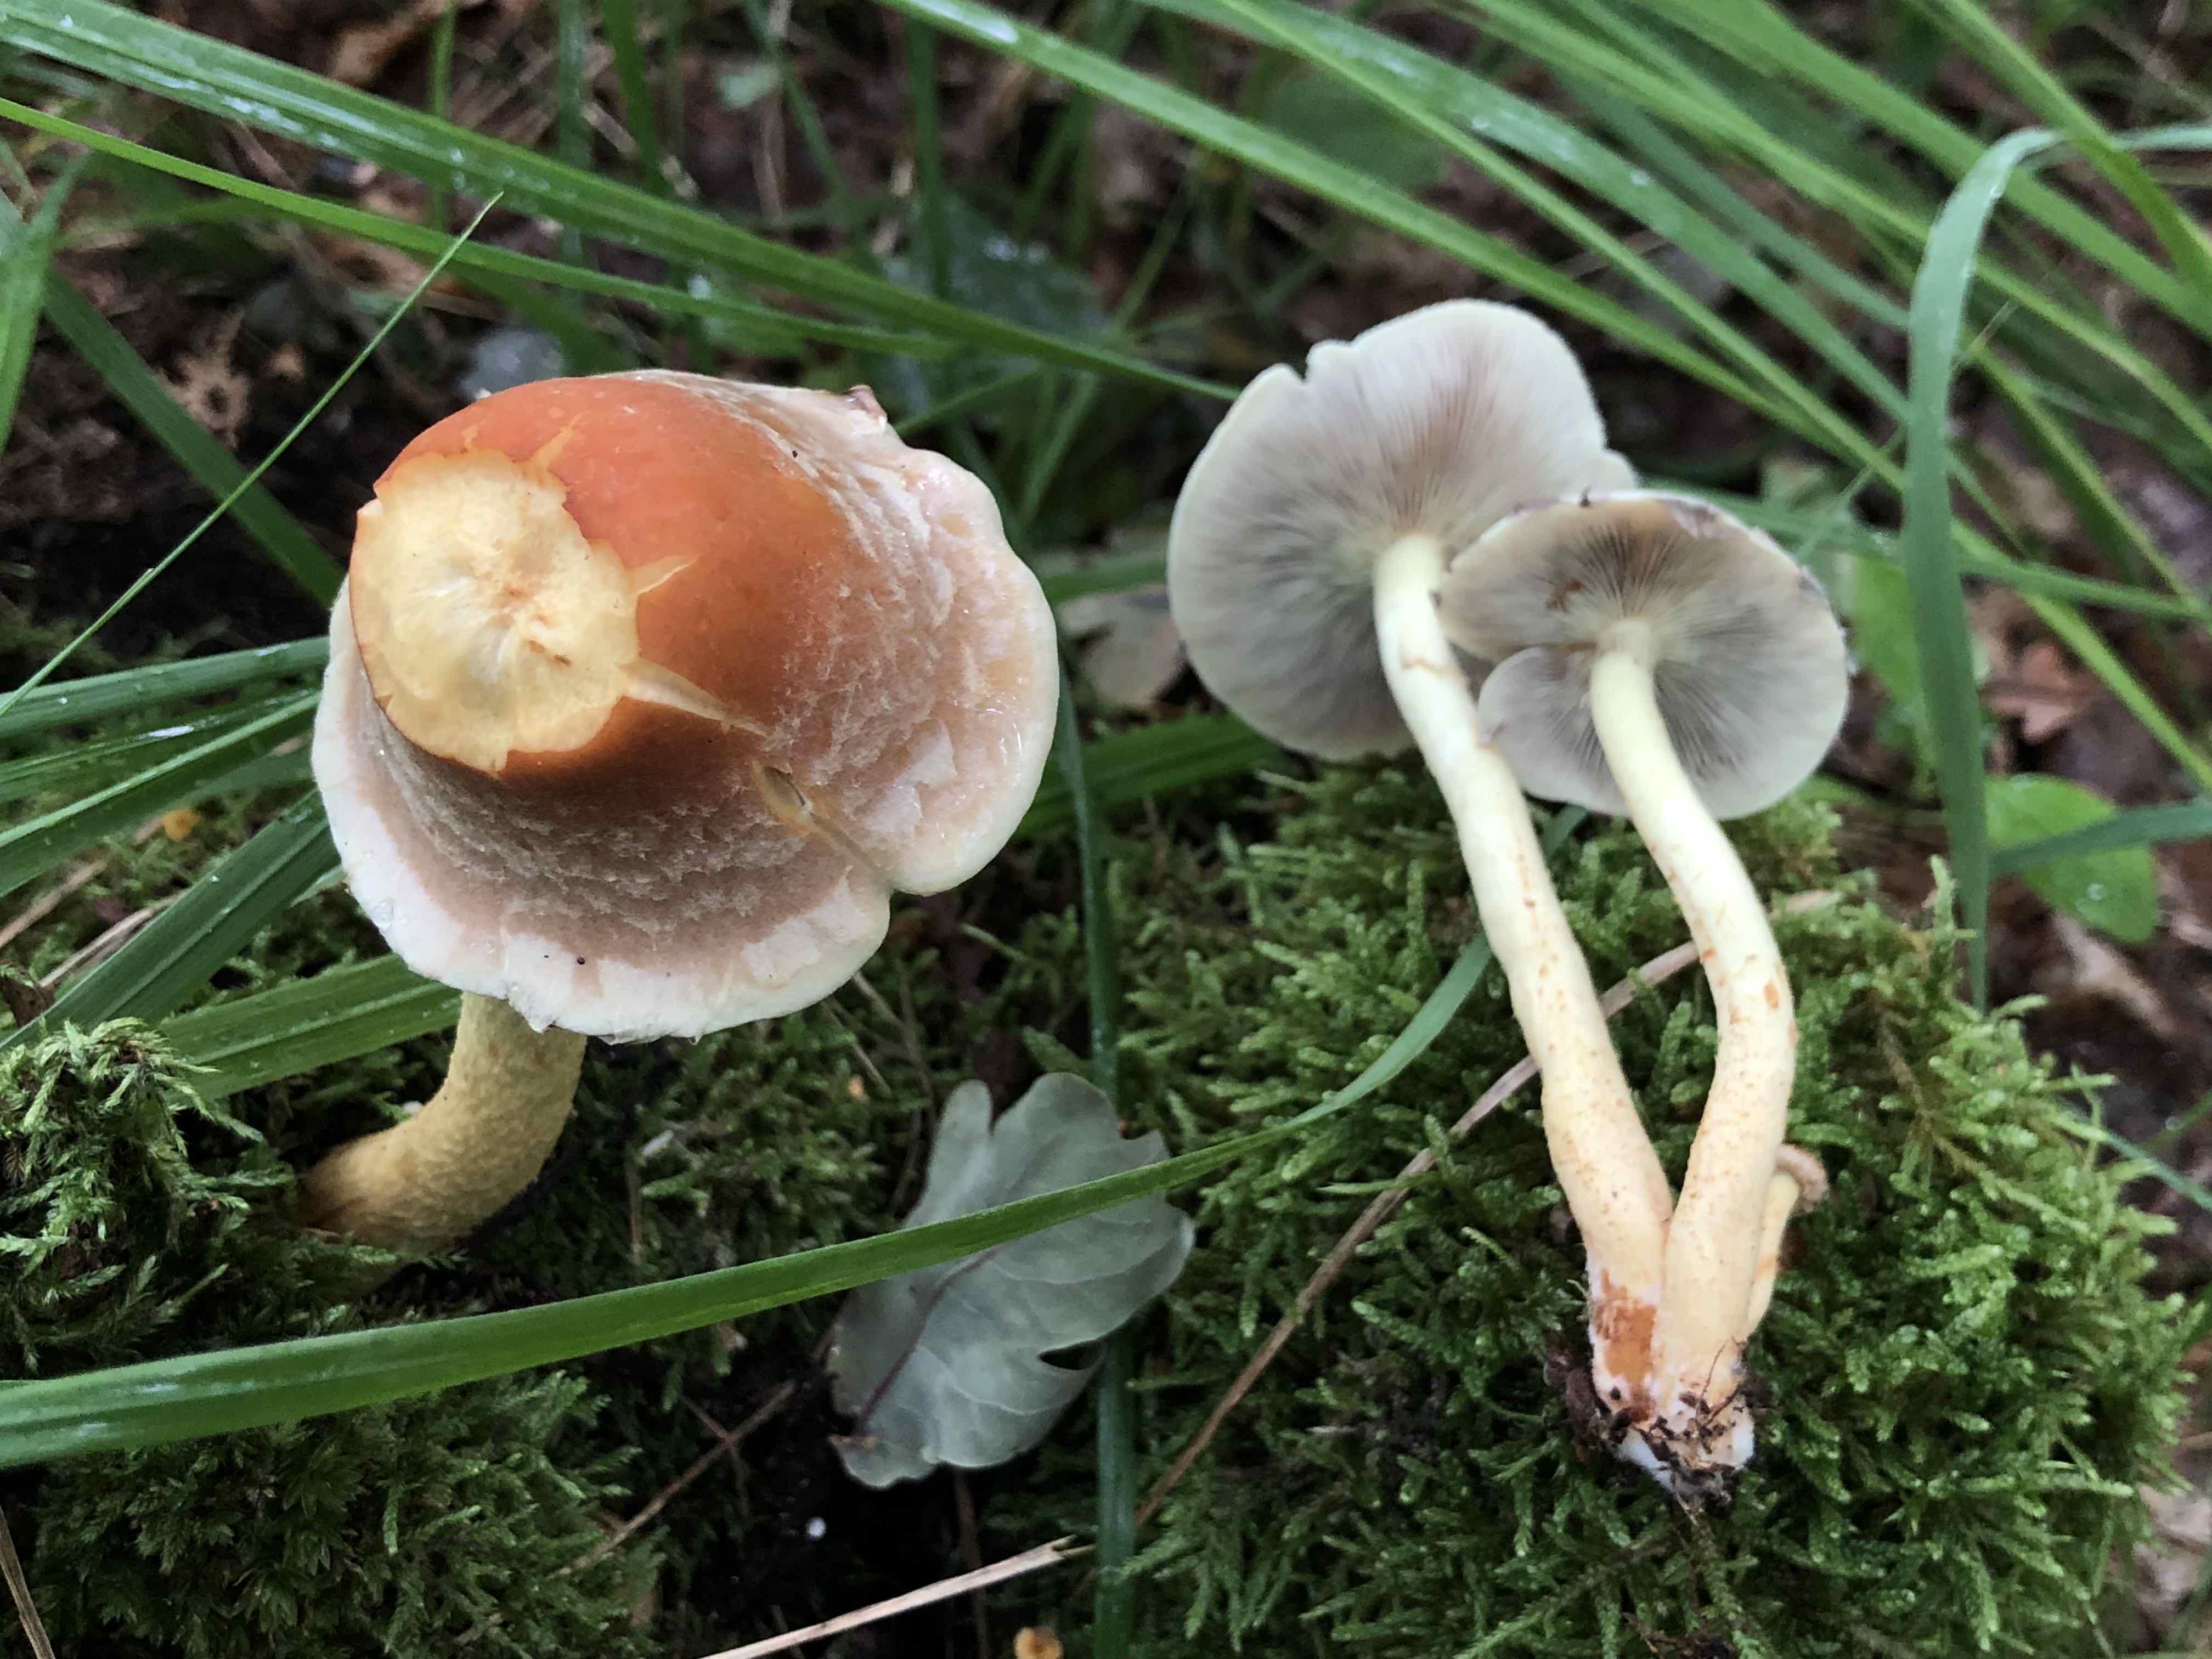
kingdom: Fungi
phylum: Basidiomycota
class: Agaricomycetes
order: Agaricales
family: Strophariaceae
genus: Hypholoma
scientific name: Hypholoma fasciculare
